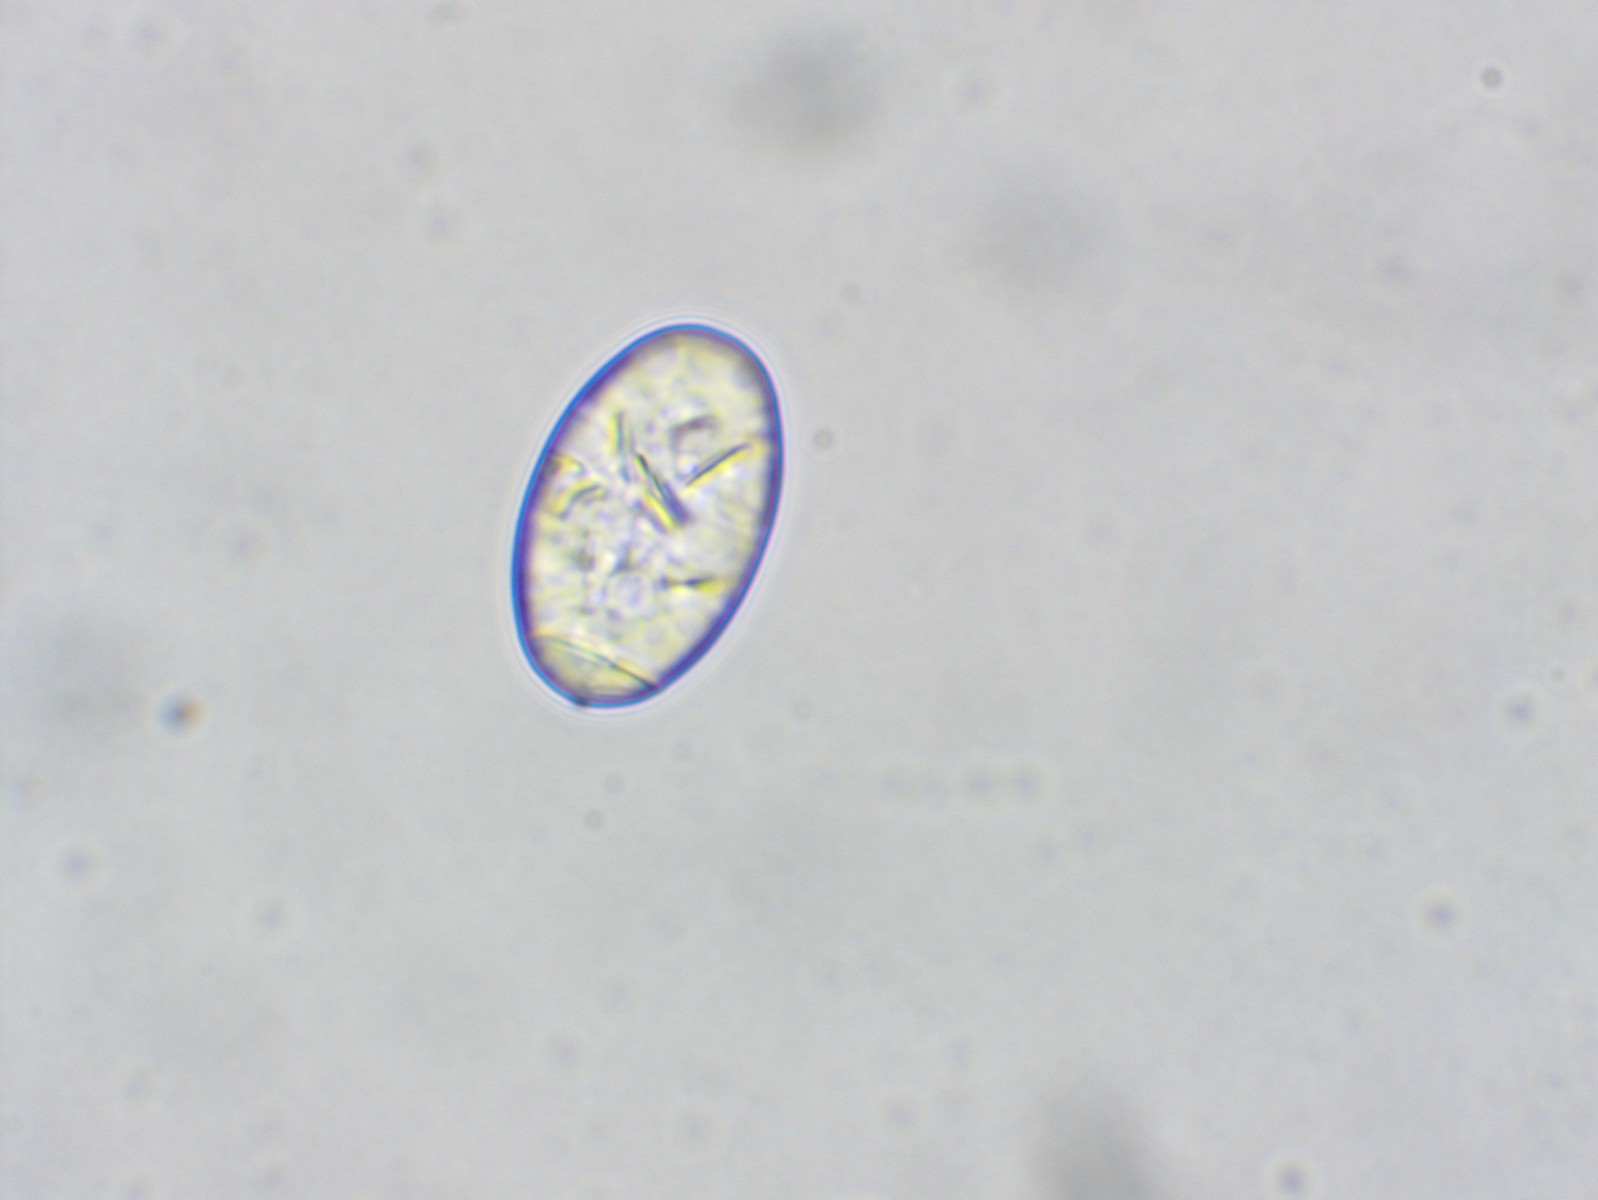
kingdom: Fungi
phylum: Ascomycota
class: Leotiomycetes
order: Helotiales
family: Erysiphaceae
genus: Podosphaera
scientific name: Podosphaera clandestina
